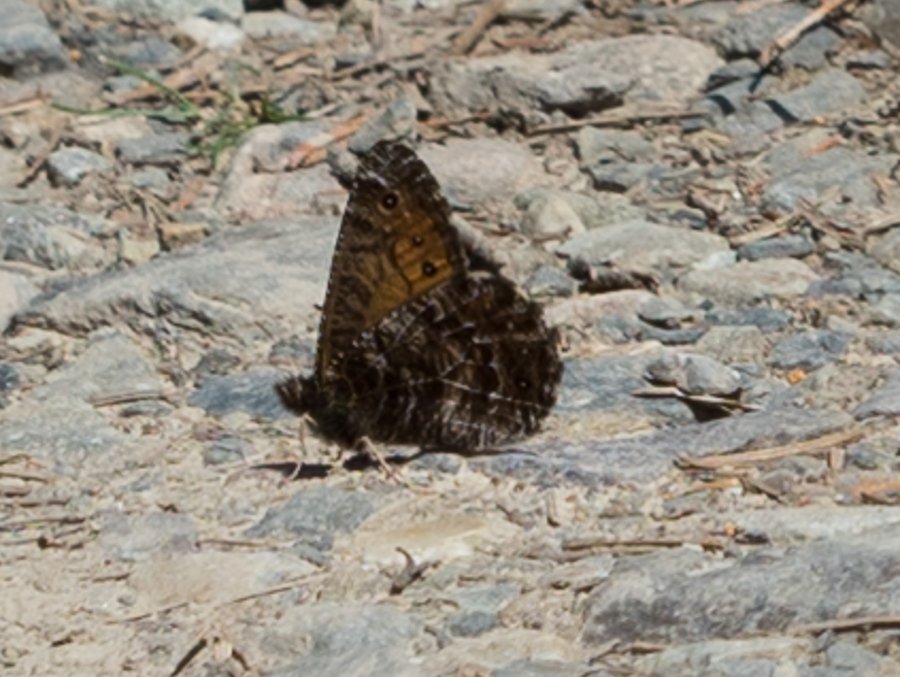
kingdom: Animalia
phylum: Arthropoda
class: Insecta
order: Lepidoptera
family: Nymphalidae
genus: Oeneis
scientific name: Oeneis chryxus
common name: Chryxus Arctic
